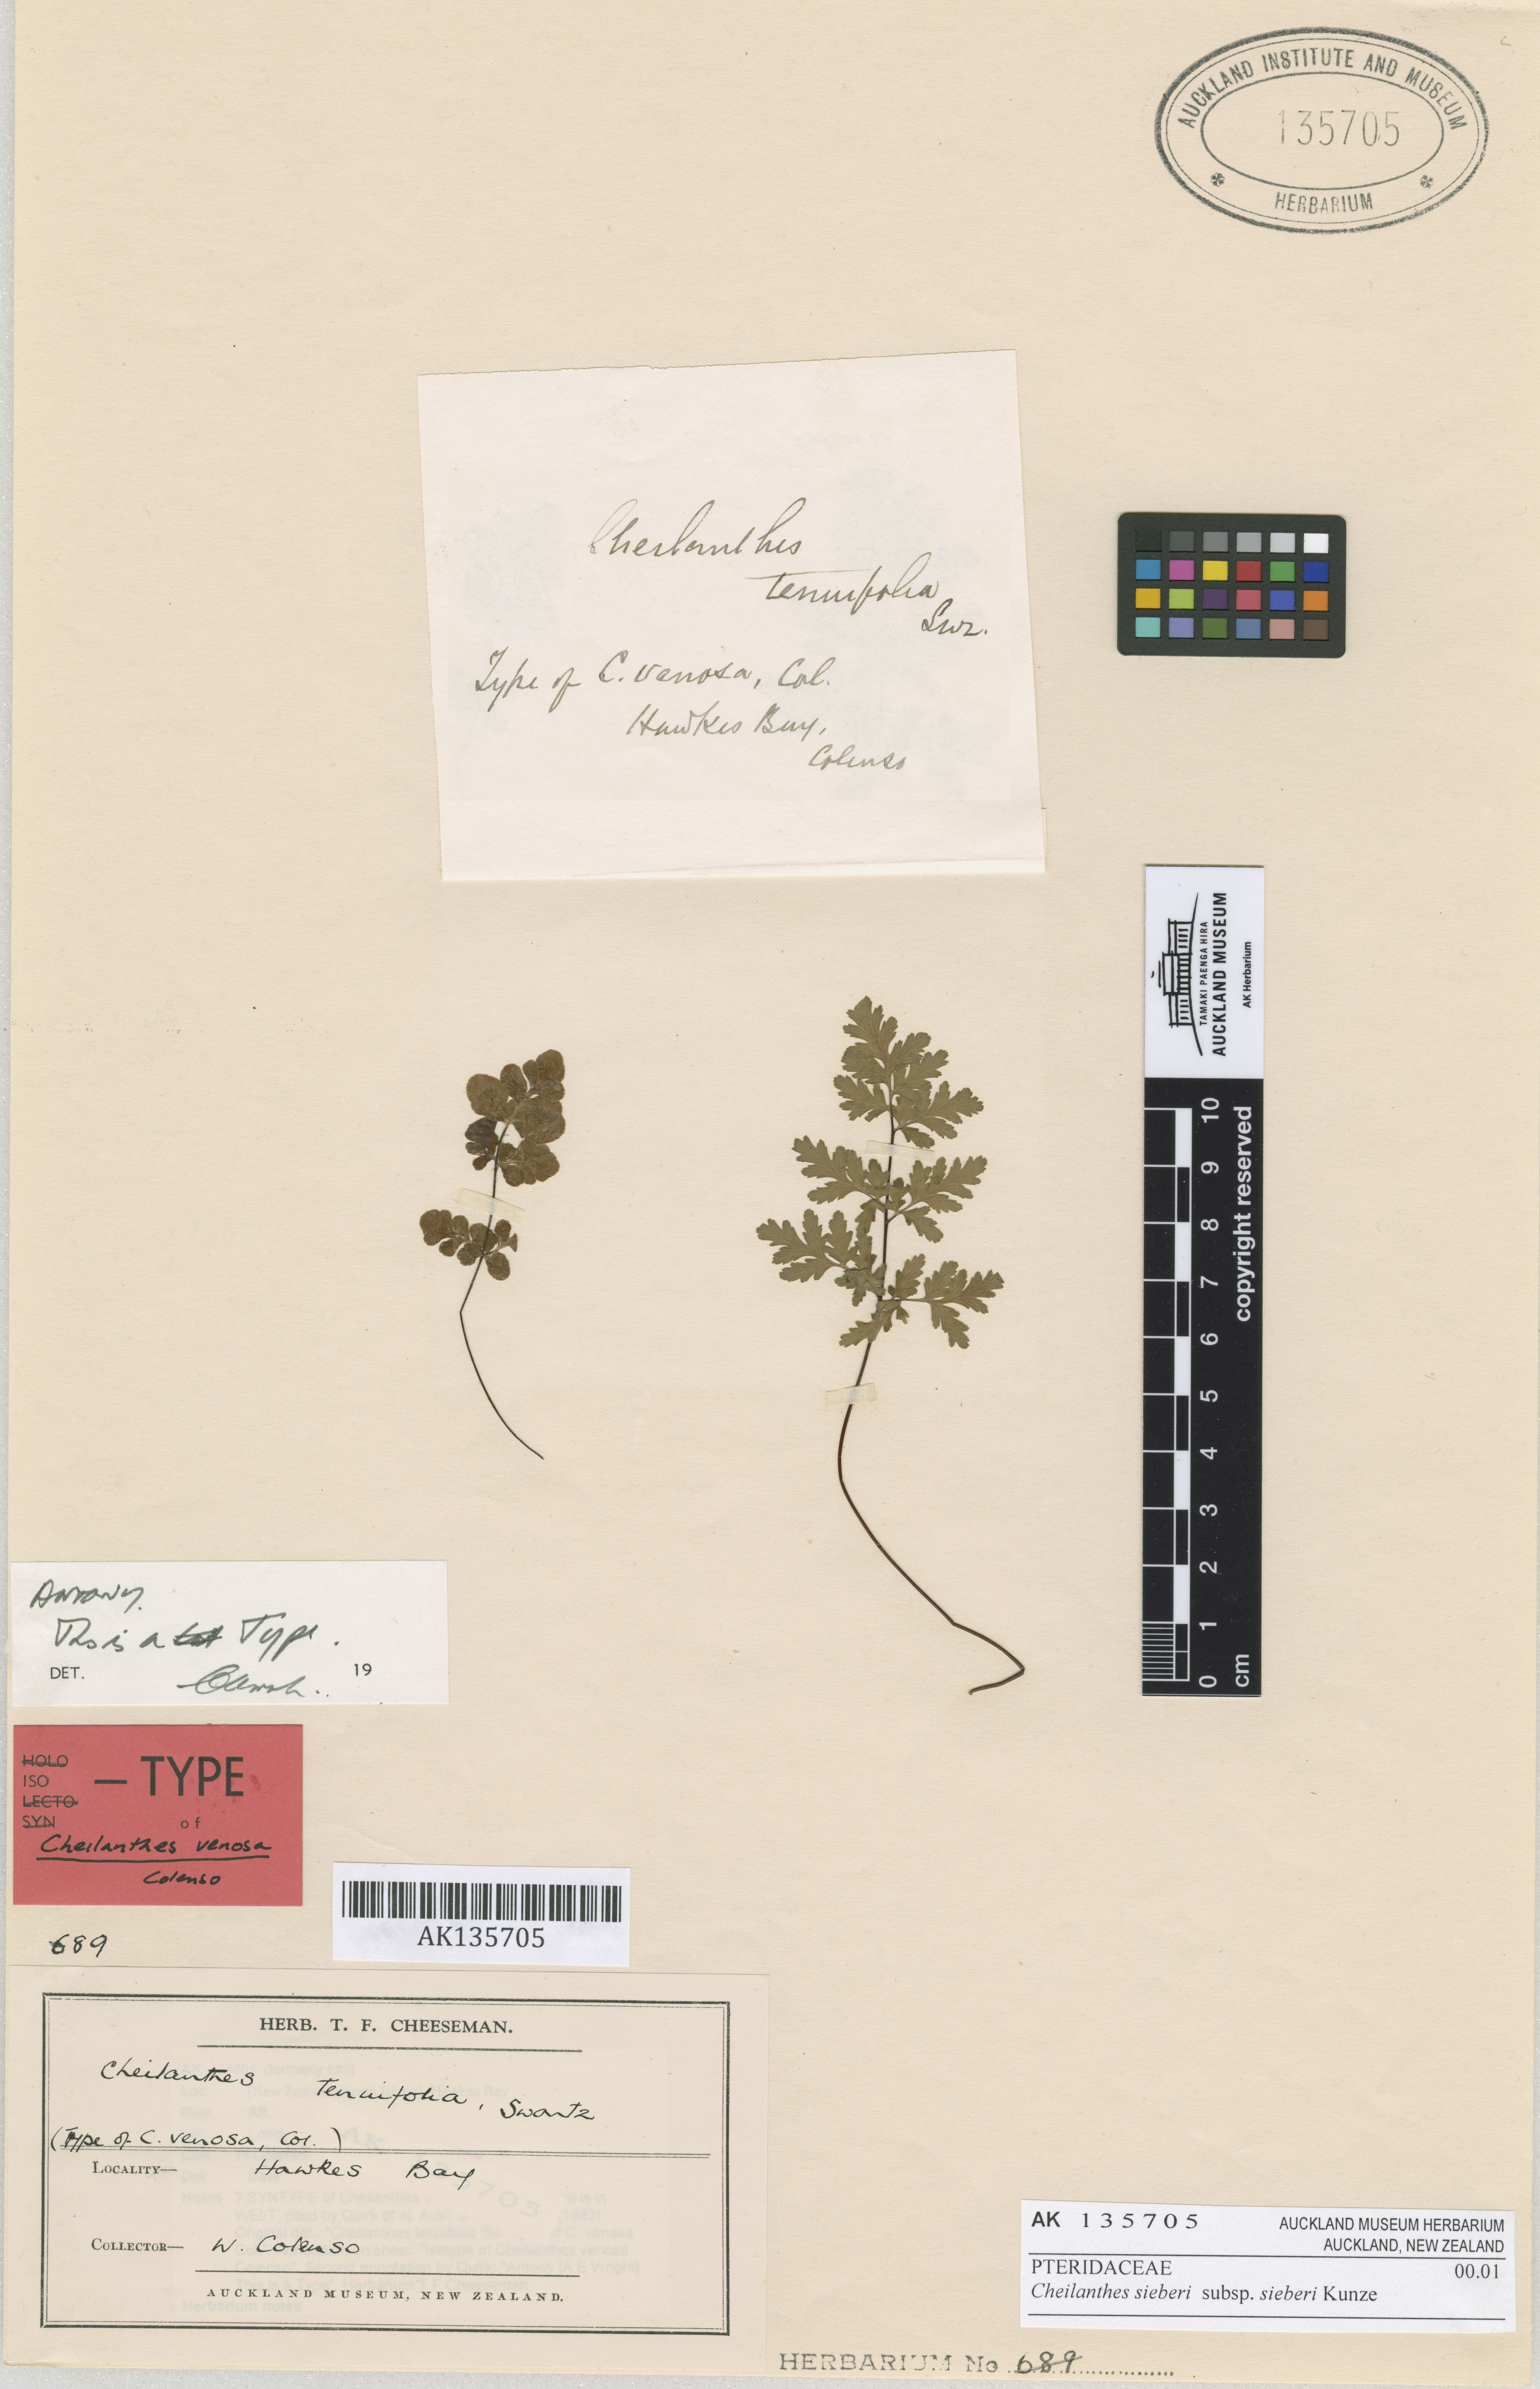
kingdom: Plantae
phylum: Tracheophyta
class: Polypodiopsida
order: Polypodiales
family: Pteridaceae
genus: Cheilanthes
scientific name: Cheilanthes sieberi
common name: Mulga fern
